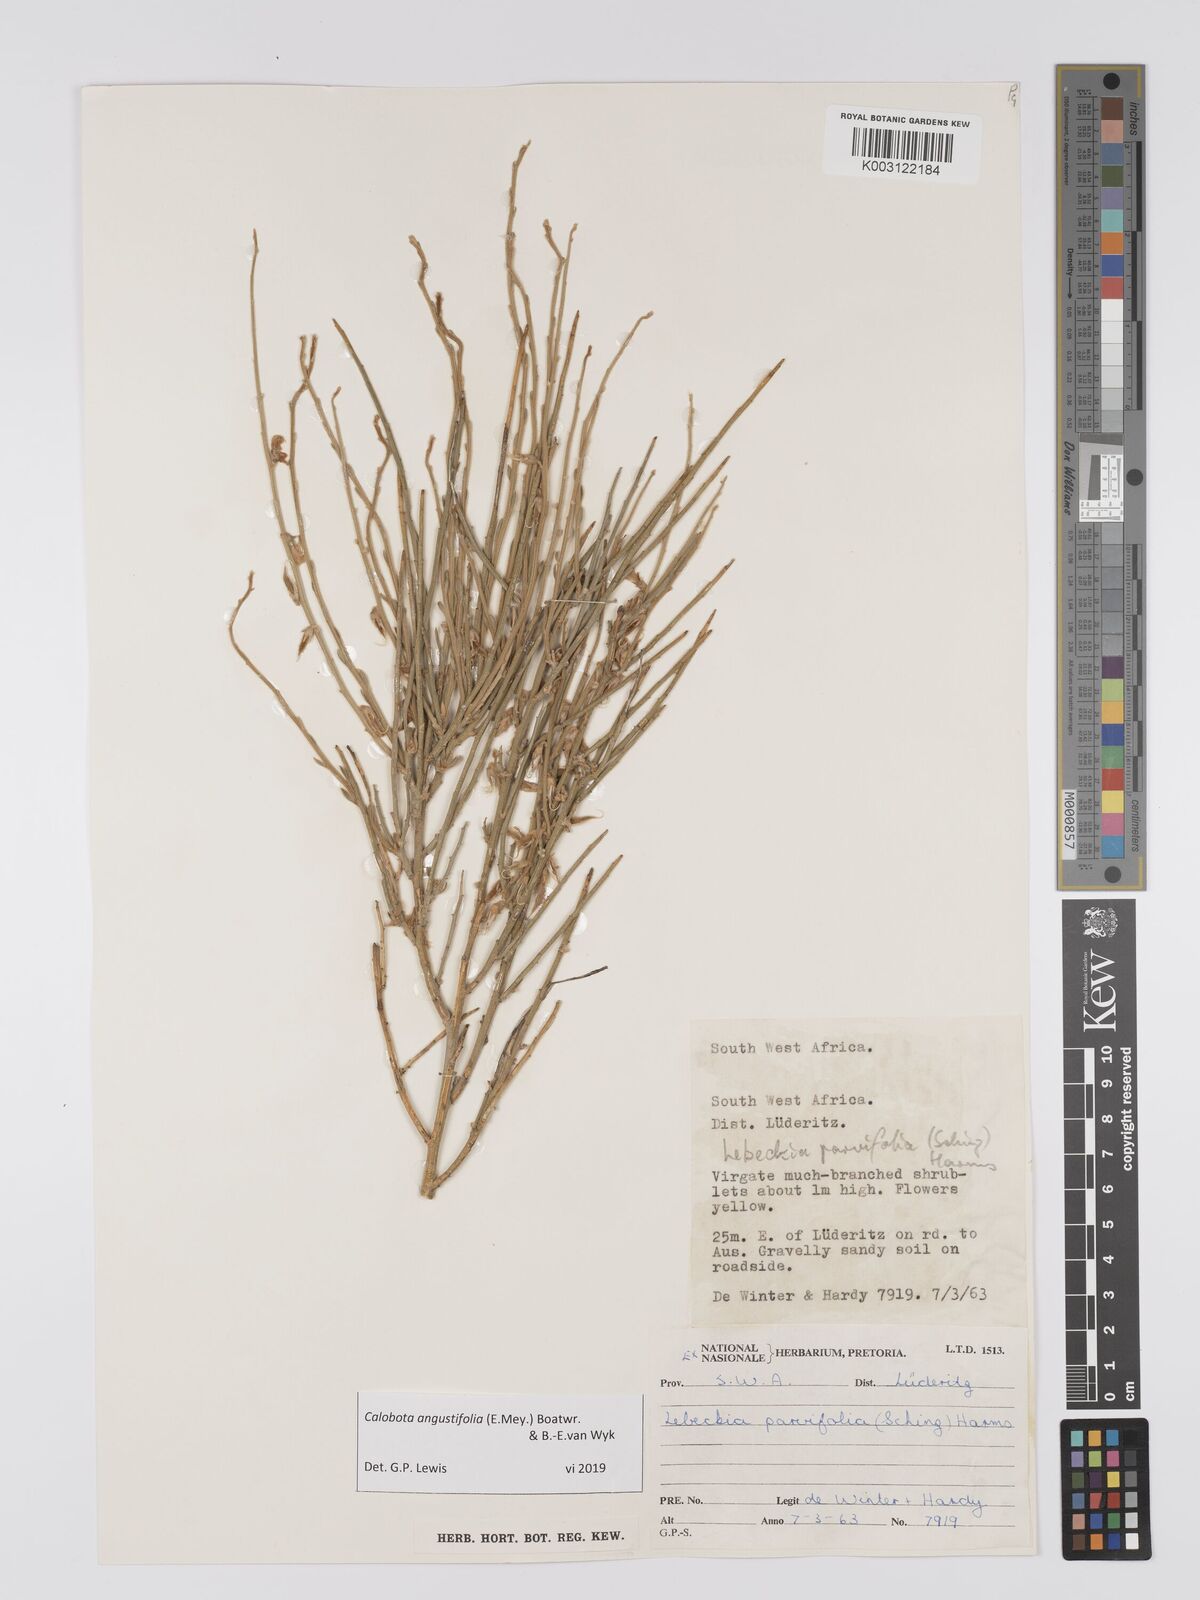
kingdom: Plantae
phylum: Tracheophyta
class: Magnoliopsida
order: Fabales
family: Fabaceae
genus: Calobota
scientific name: Calobota angustifolia
